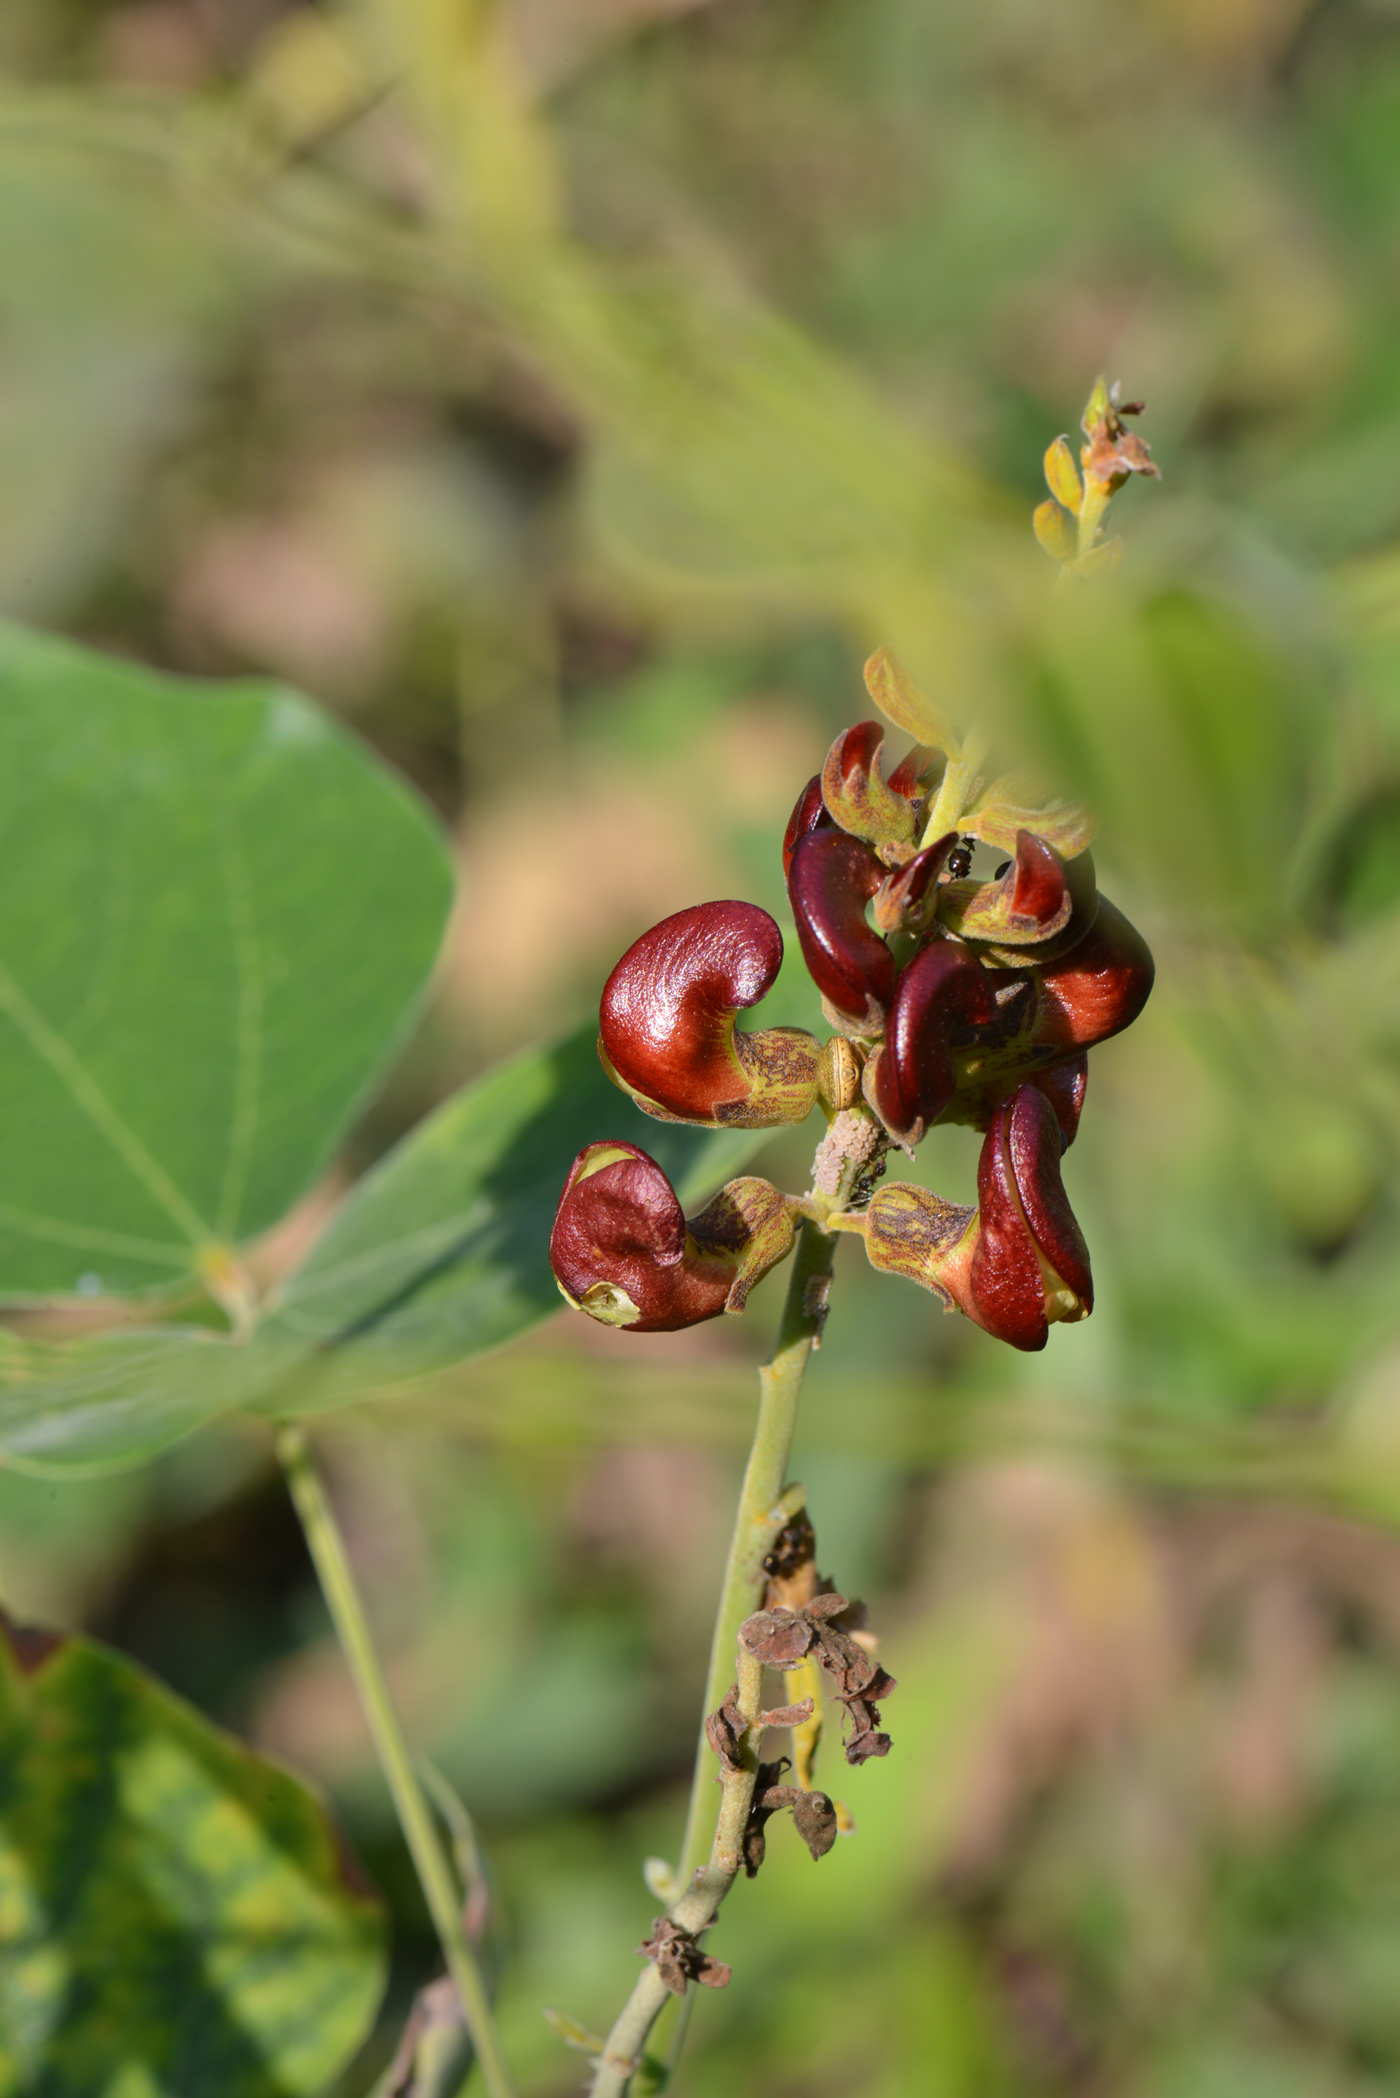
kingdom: Plantae
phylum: Tracheophyta
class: Magnoliopsida
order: Fabales
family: Fabaceae
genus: Dunbaria
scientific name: Dunbaria circinalis
